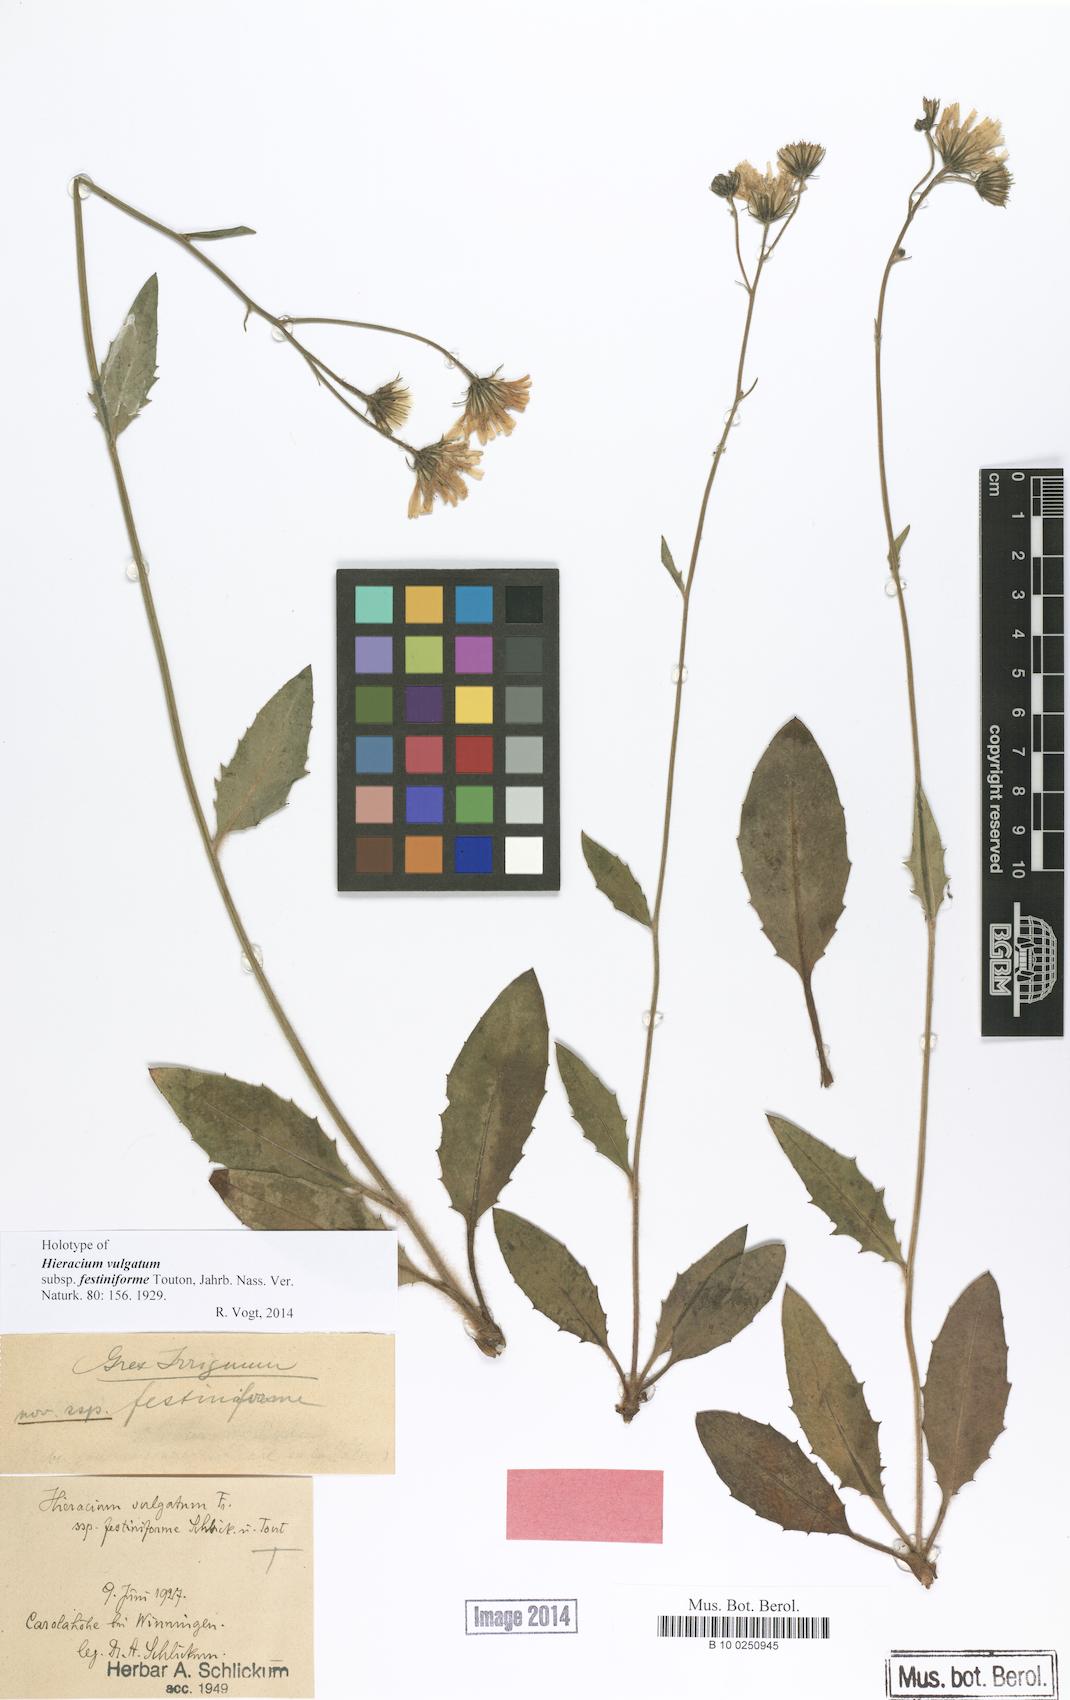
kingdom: Plantae
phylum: Tracheophyta
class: Magnoliopsida
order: Asterales
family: Asteraceae
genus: Hieracium
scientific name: Hieracium lachenalii
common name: Common hawkweed
